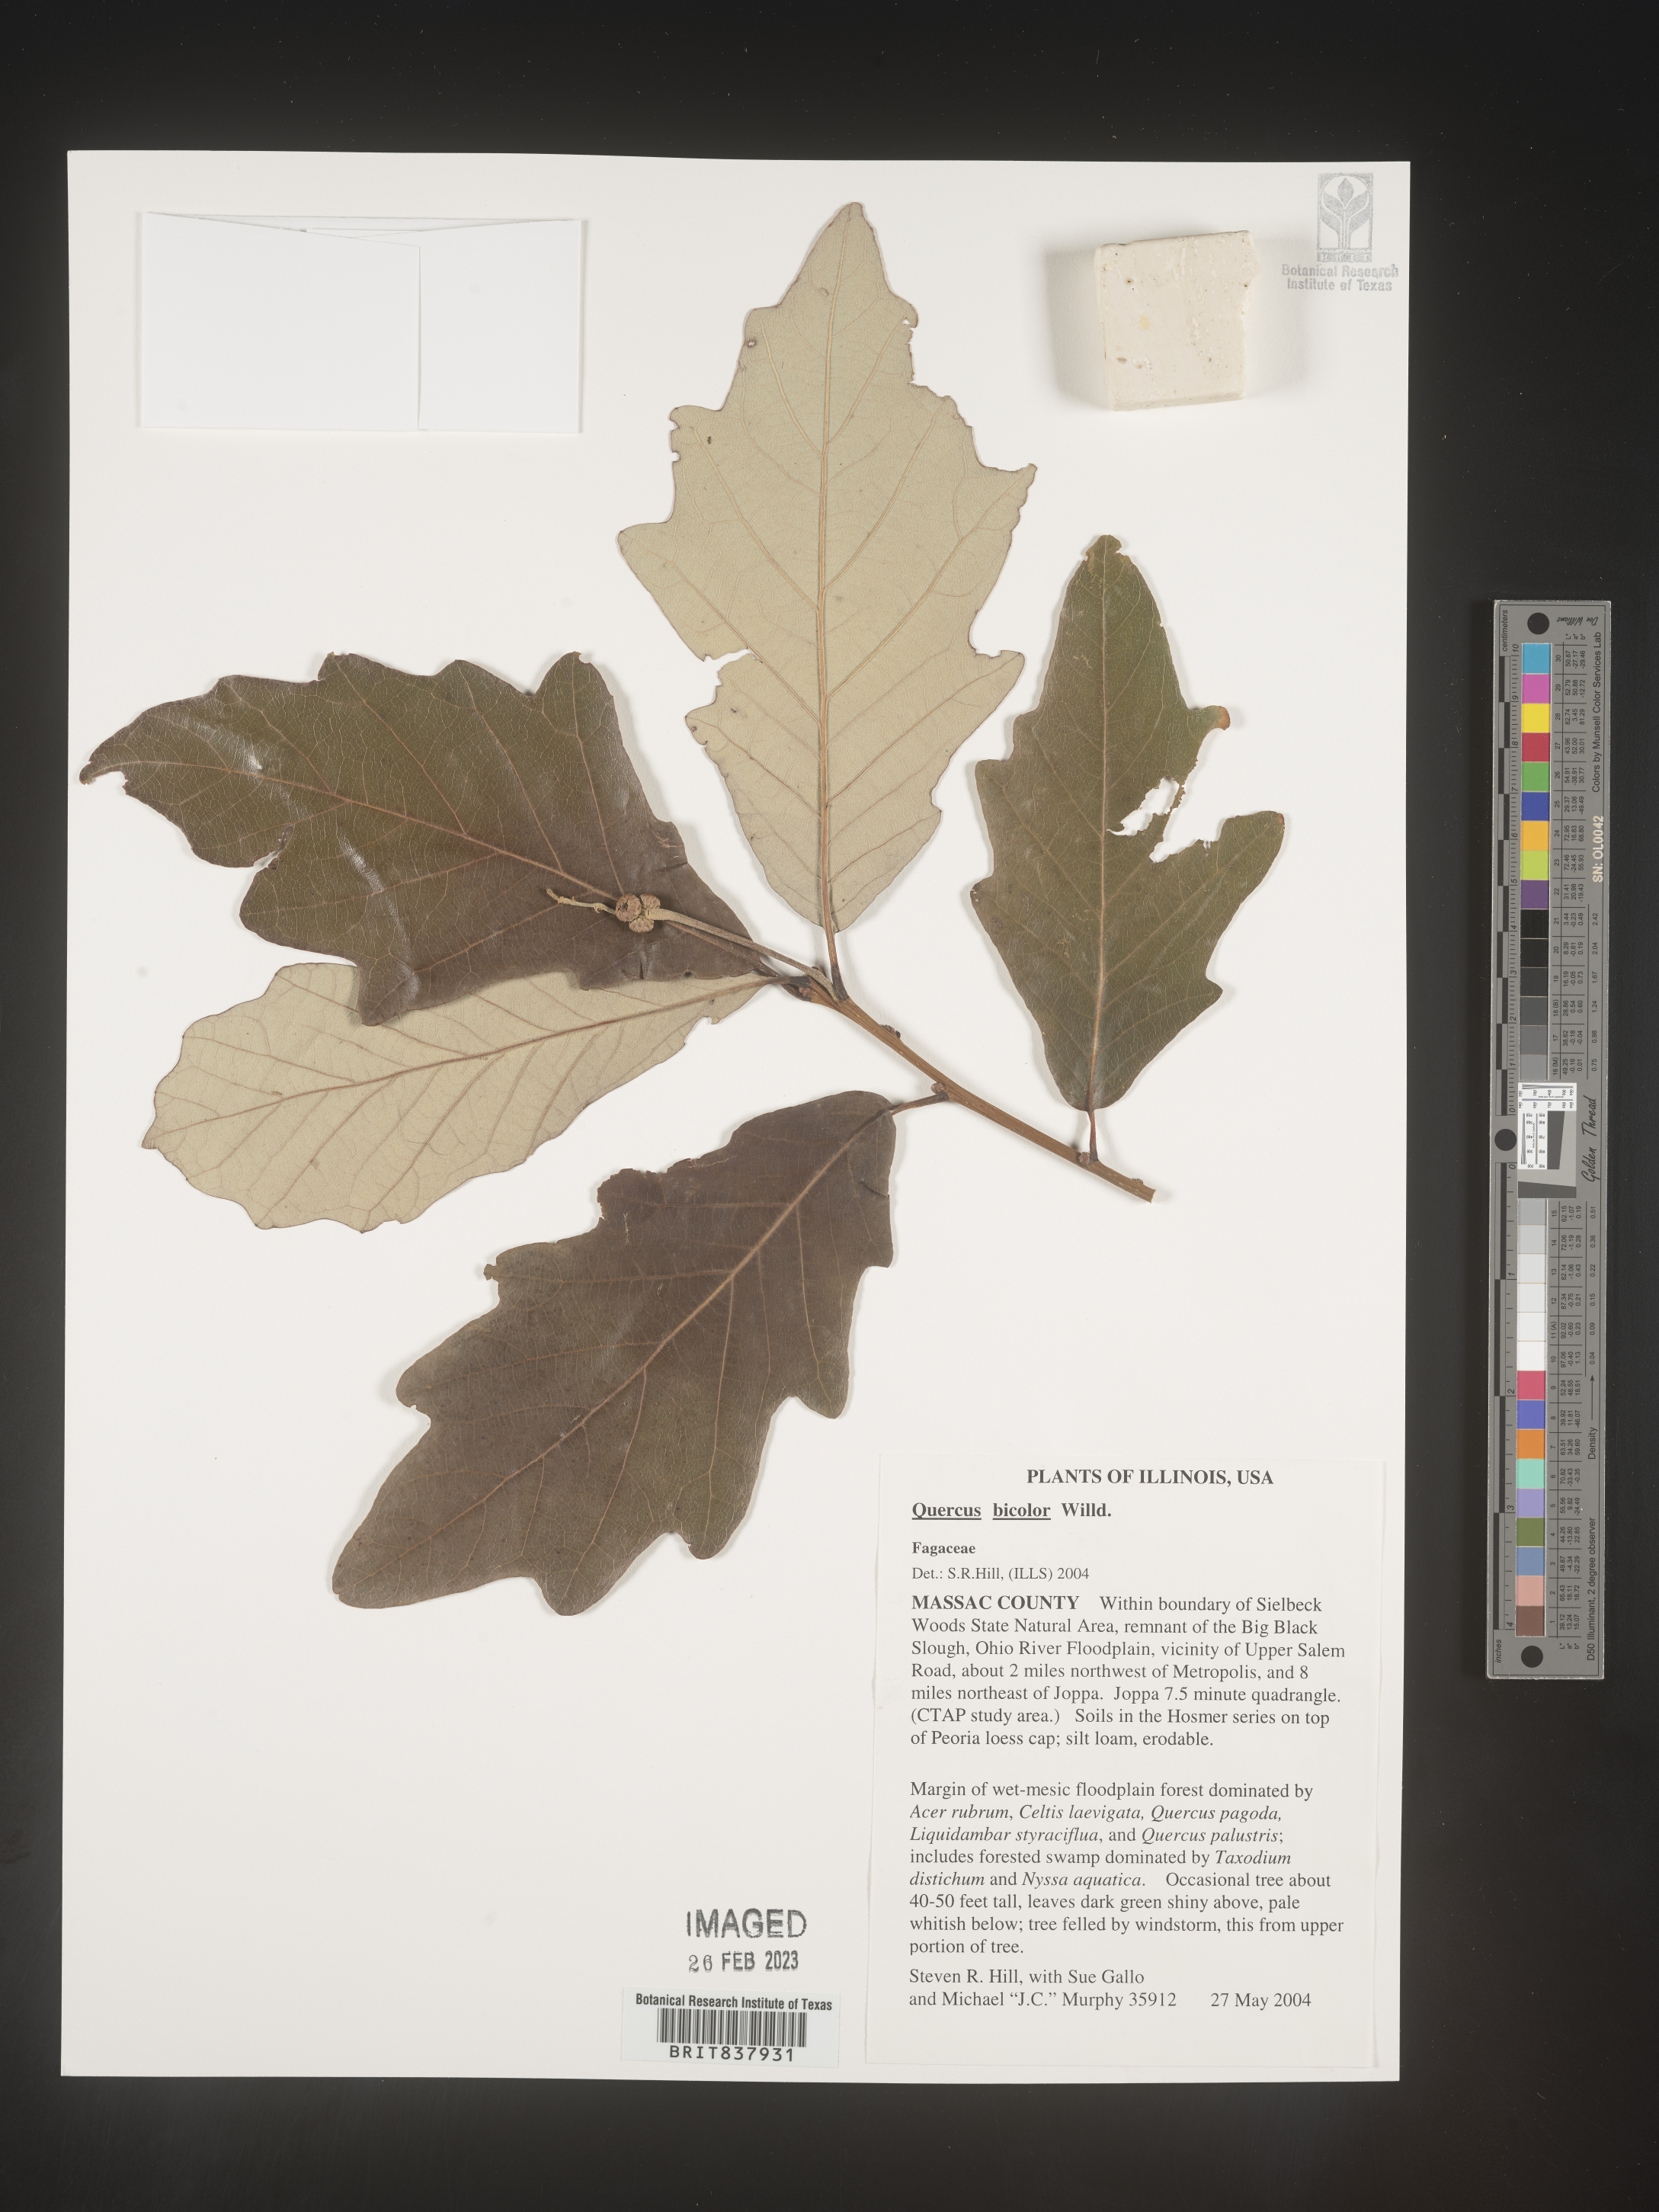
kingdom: Plantae
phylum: Tracheophyta
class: Magnoliopsida
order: Fagales
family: Fagaceae
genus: Quercus
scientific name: Quercus bicolor
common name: Swamp white oak
